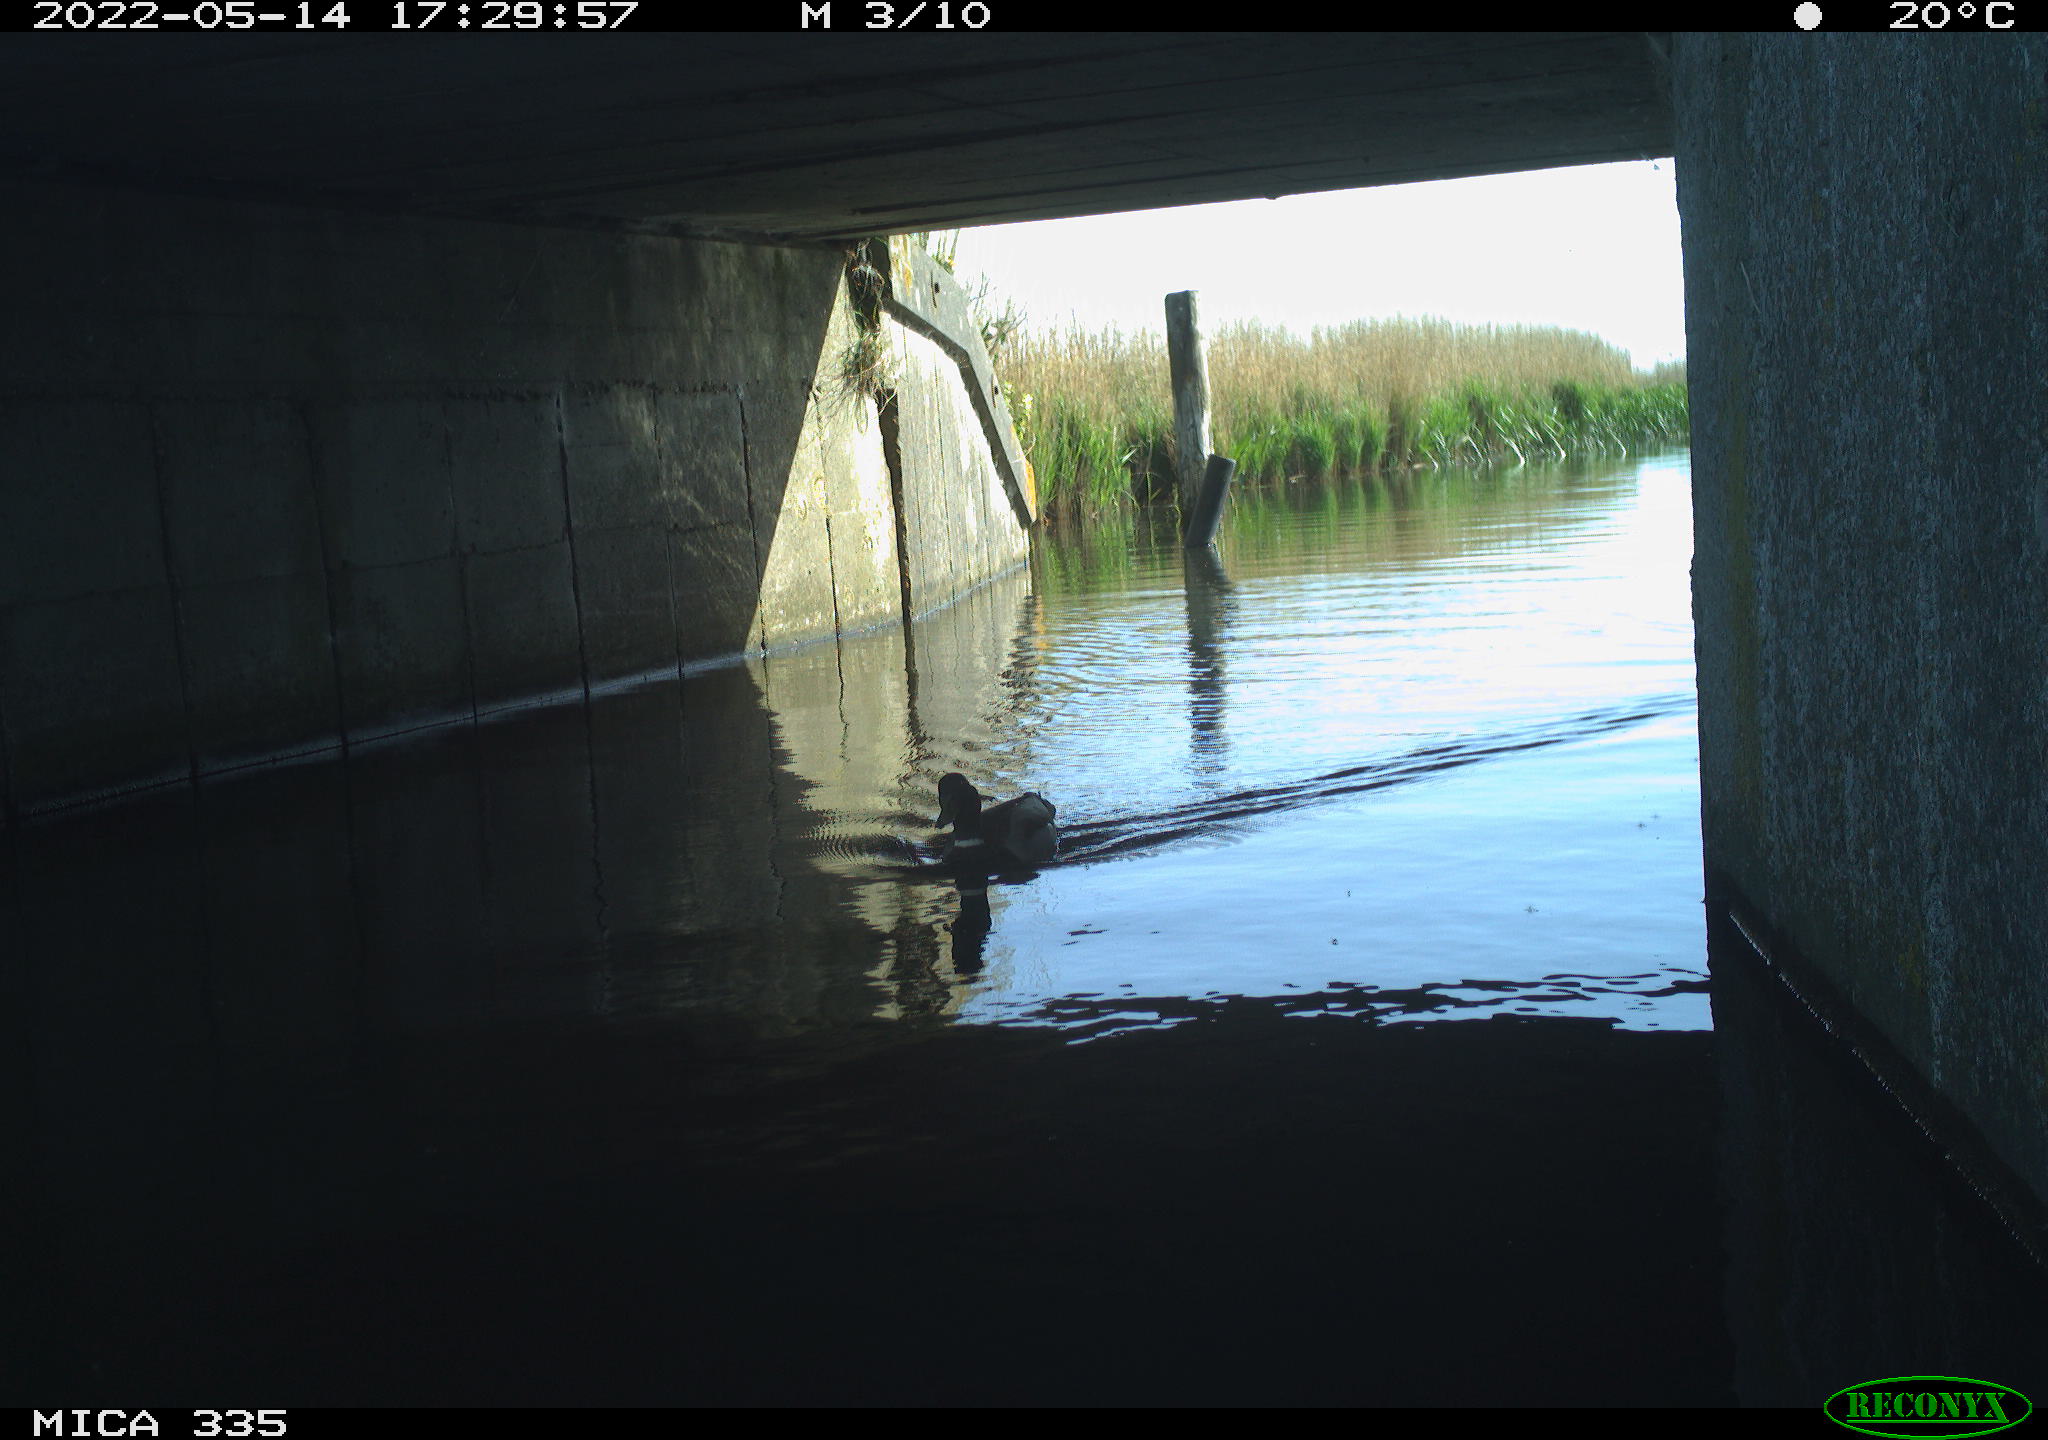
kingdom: Animalia
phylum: Chordata
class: Aves
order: Anseriformes
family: Anatidae
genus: Anas
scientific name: Anas platyrhynchos
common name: Mallard
